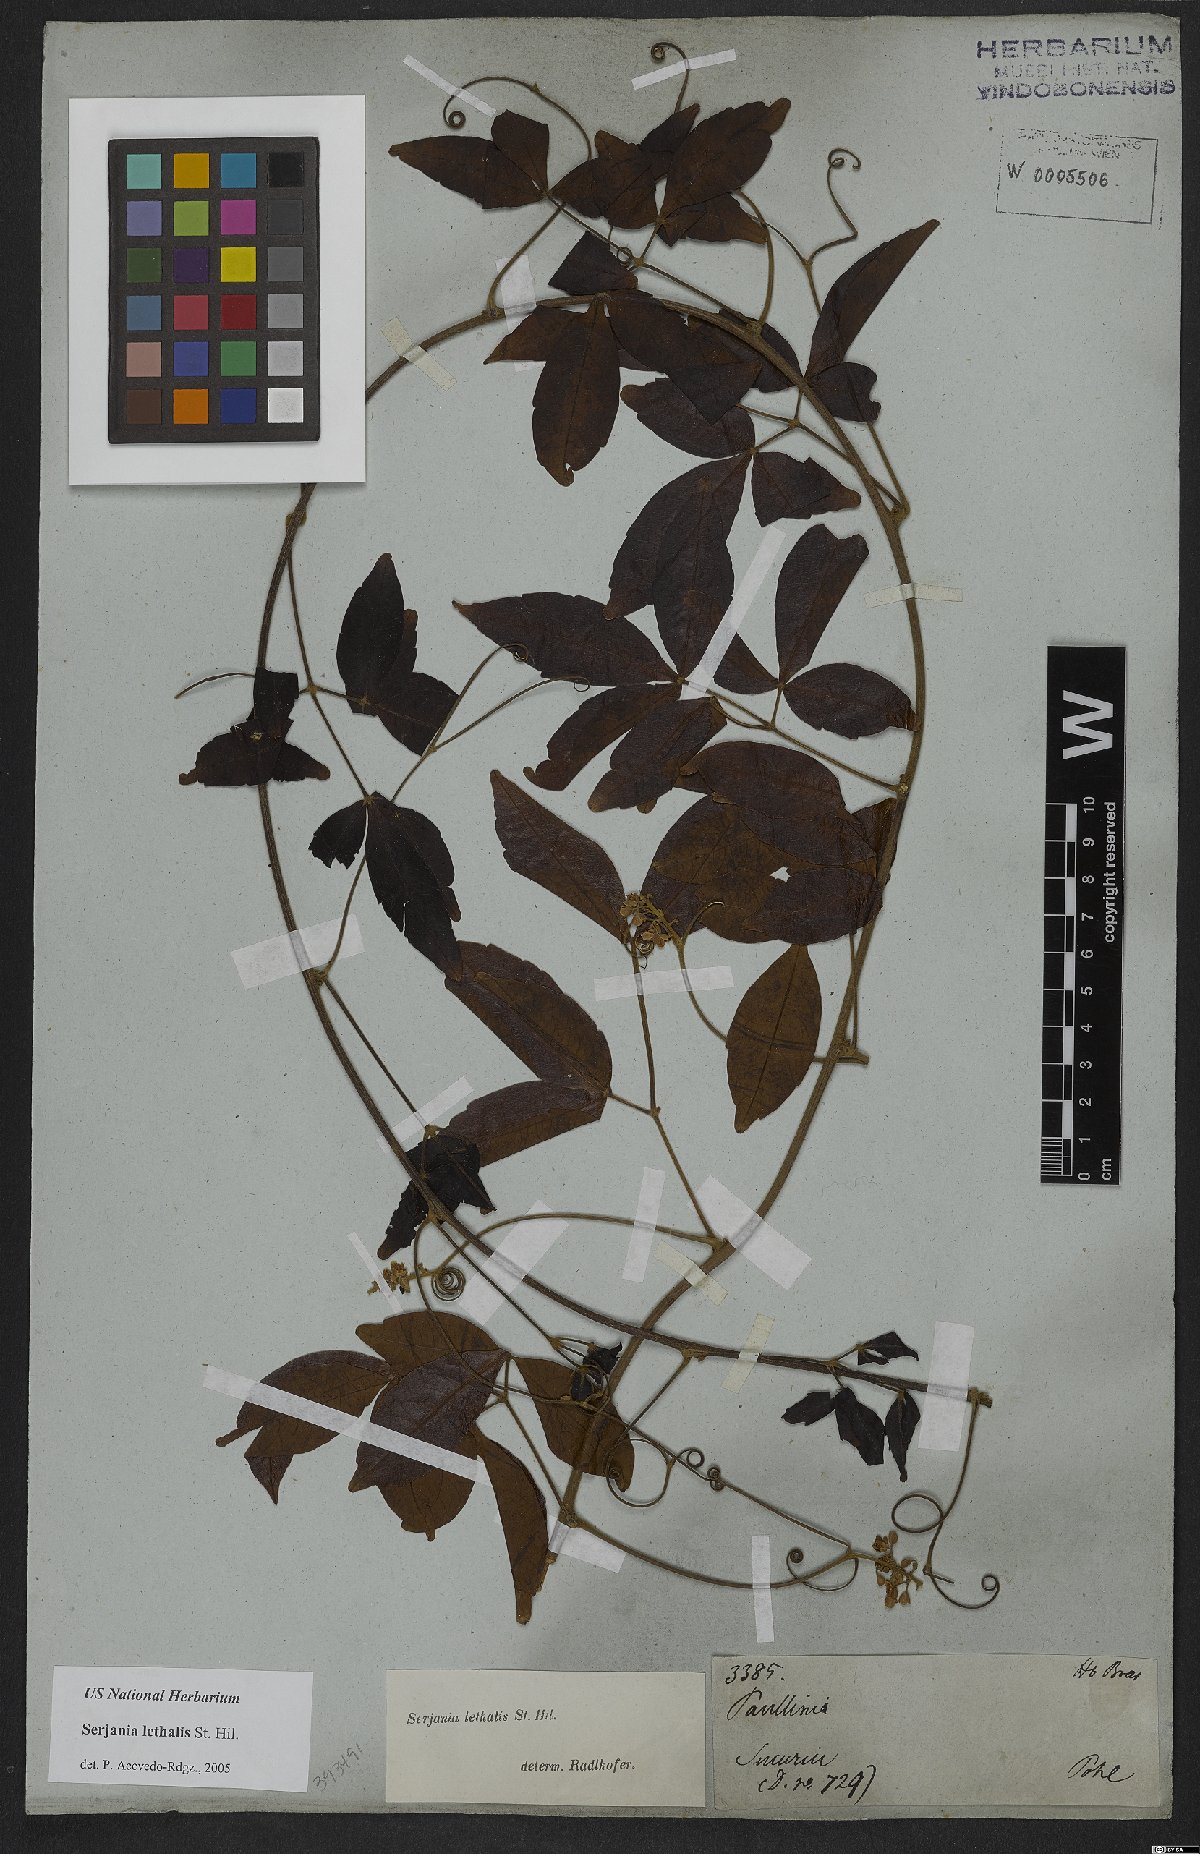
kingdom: Plantae
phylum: Tracheophyta
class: Magnoliopsida
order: Sapindales
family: Sapindaceae
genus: Serjania
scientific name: Serjania lethalis
